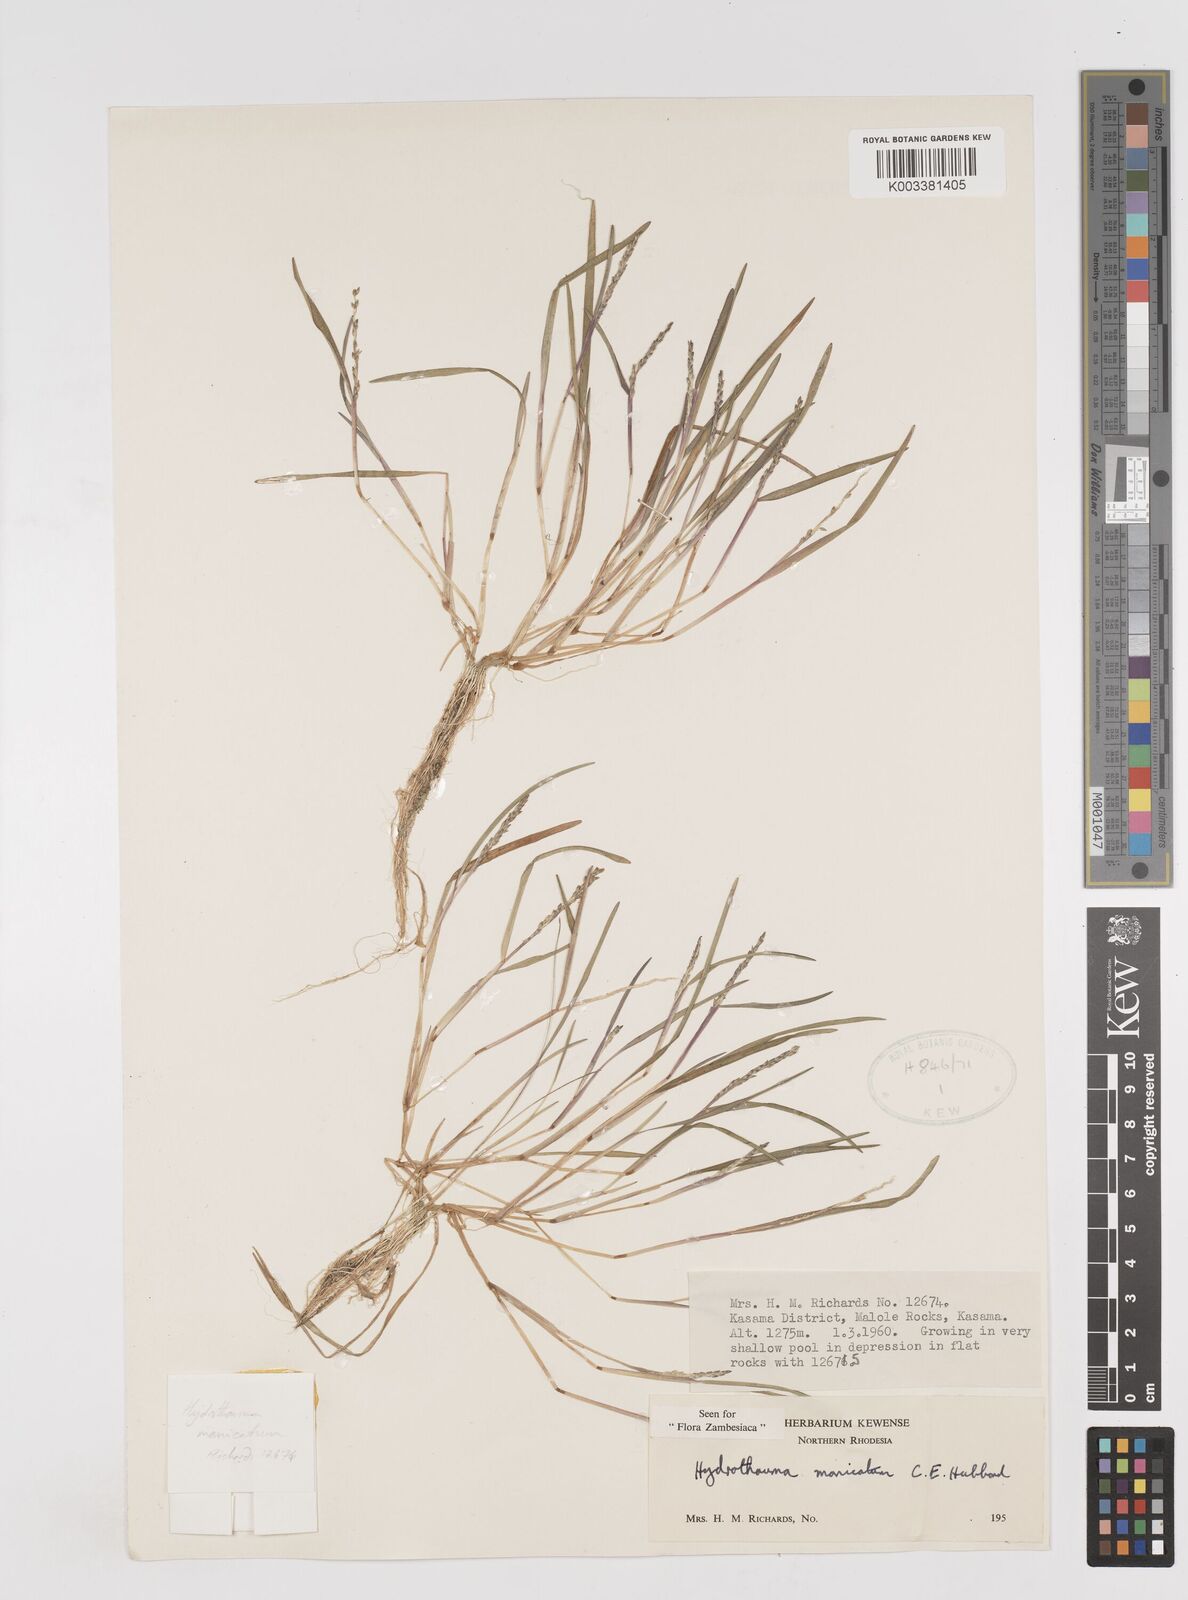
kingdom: Plantae
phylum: Tracheophyta
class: Liliopsida
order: Poales
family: Poaceae
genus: Hydrothauma
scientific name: Hydrothauma
